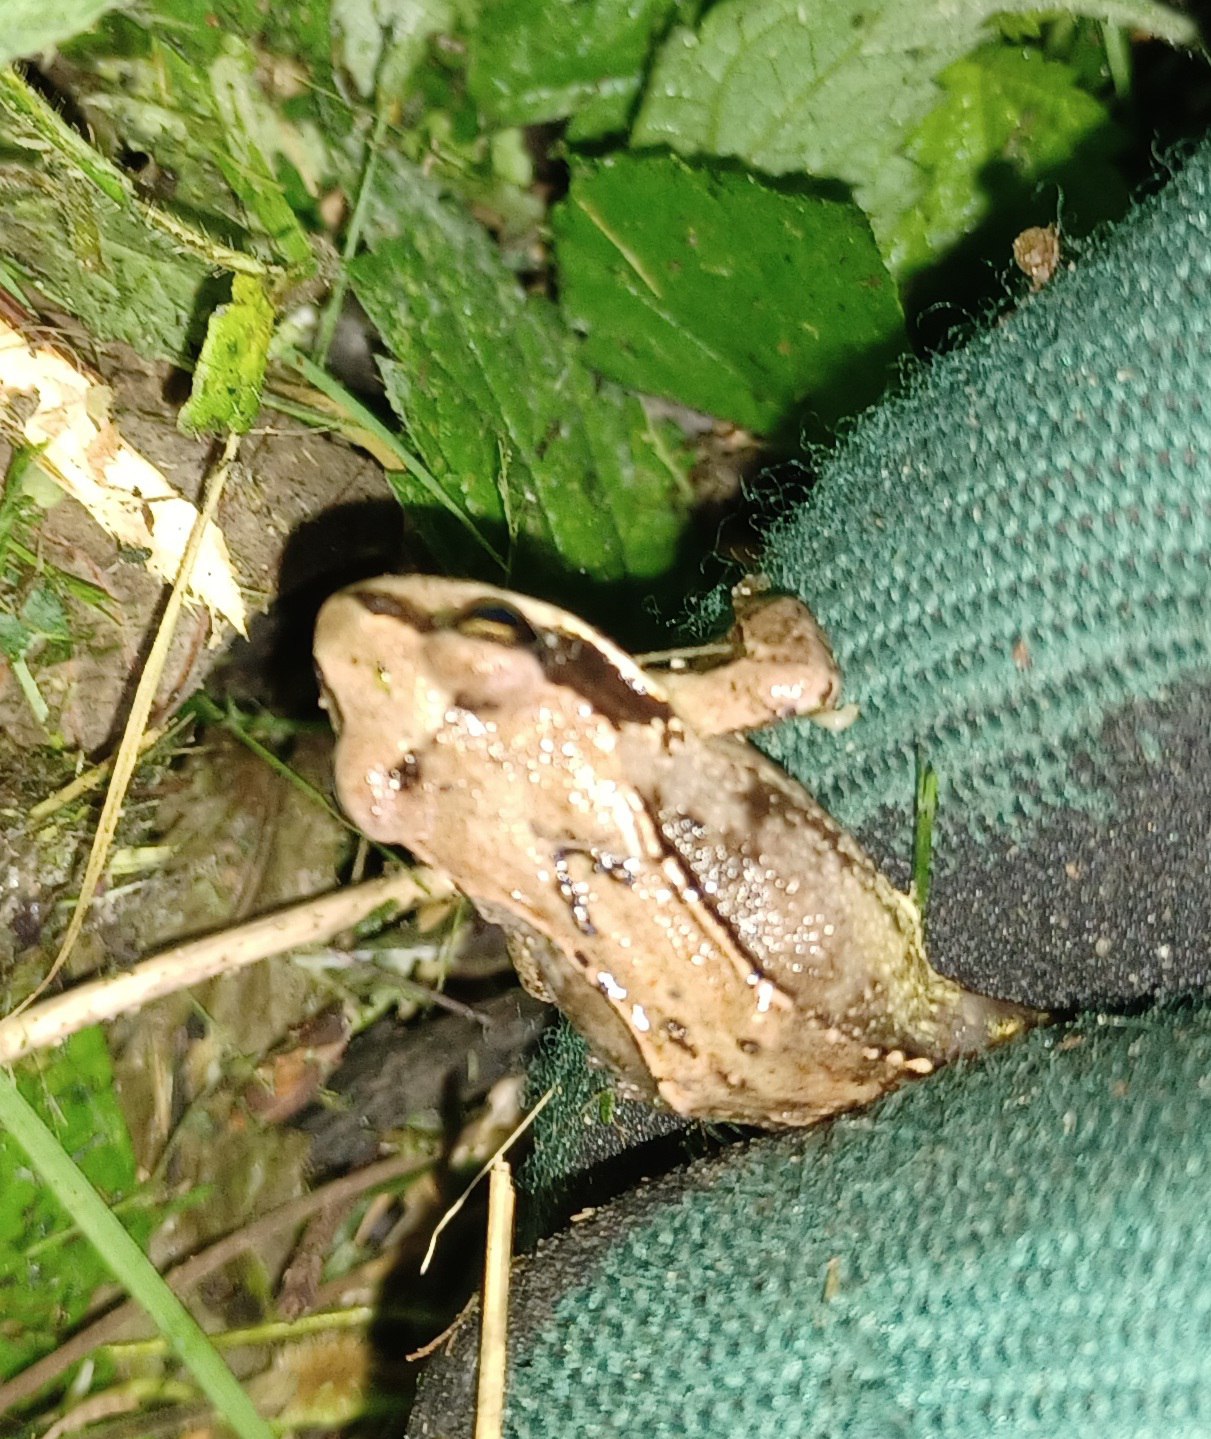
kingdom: Animalia
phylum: Chordata
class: Amphibia
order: Anura
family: Ranidae
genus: Rana
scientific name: Rana temporaria
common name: Butsnudet frø
